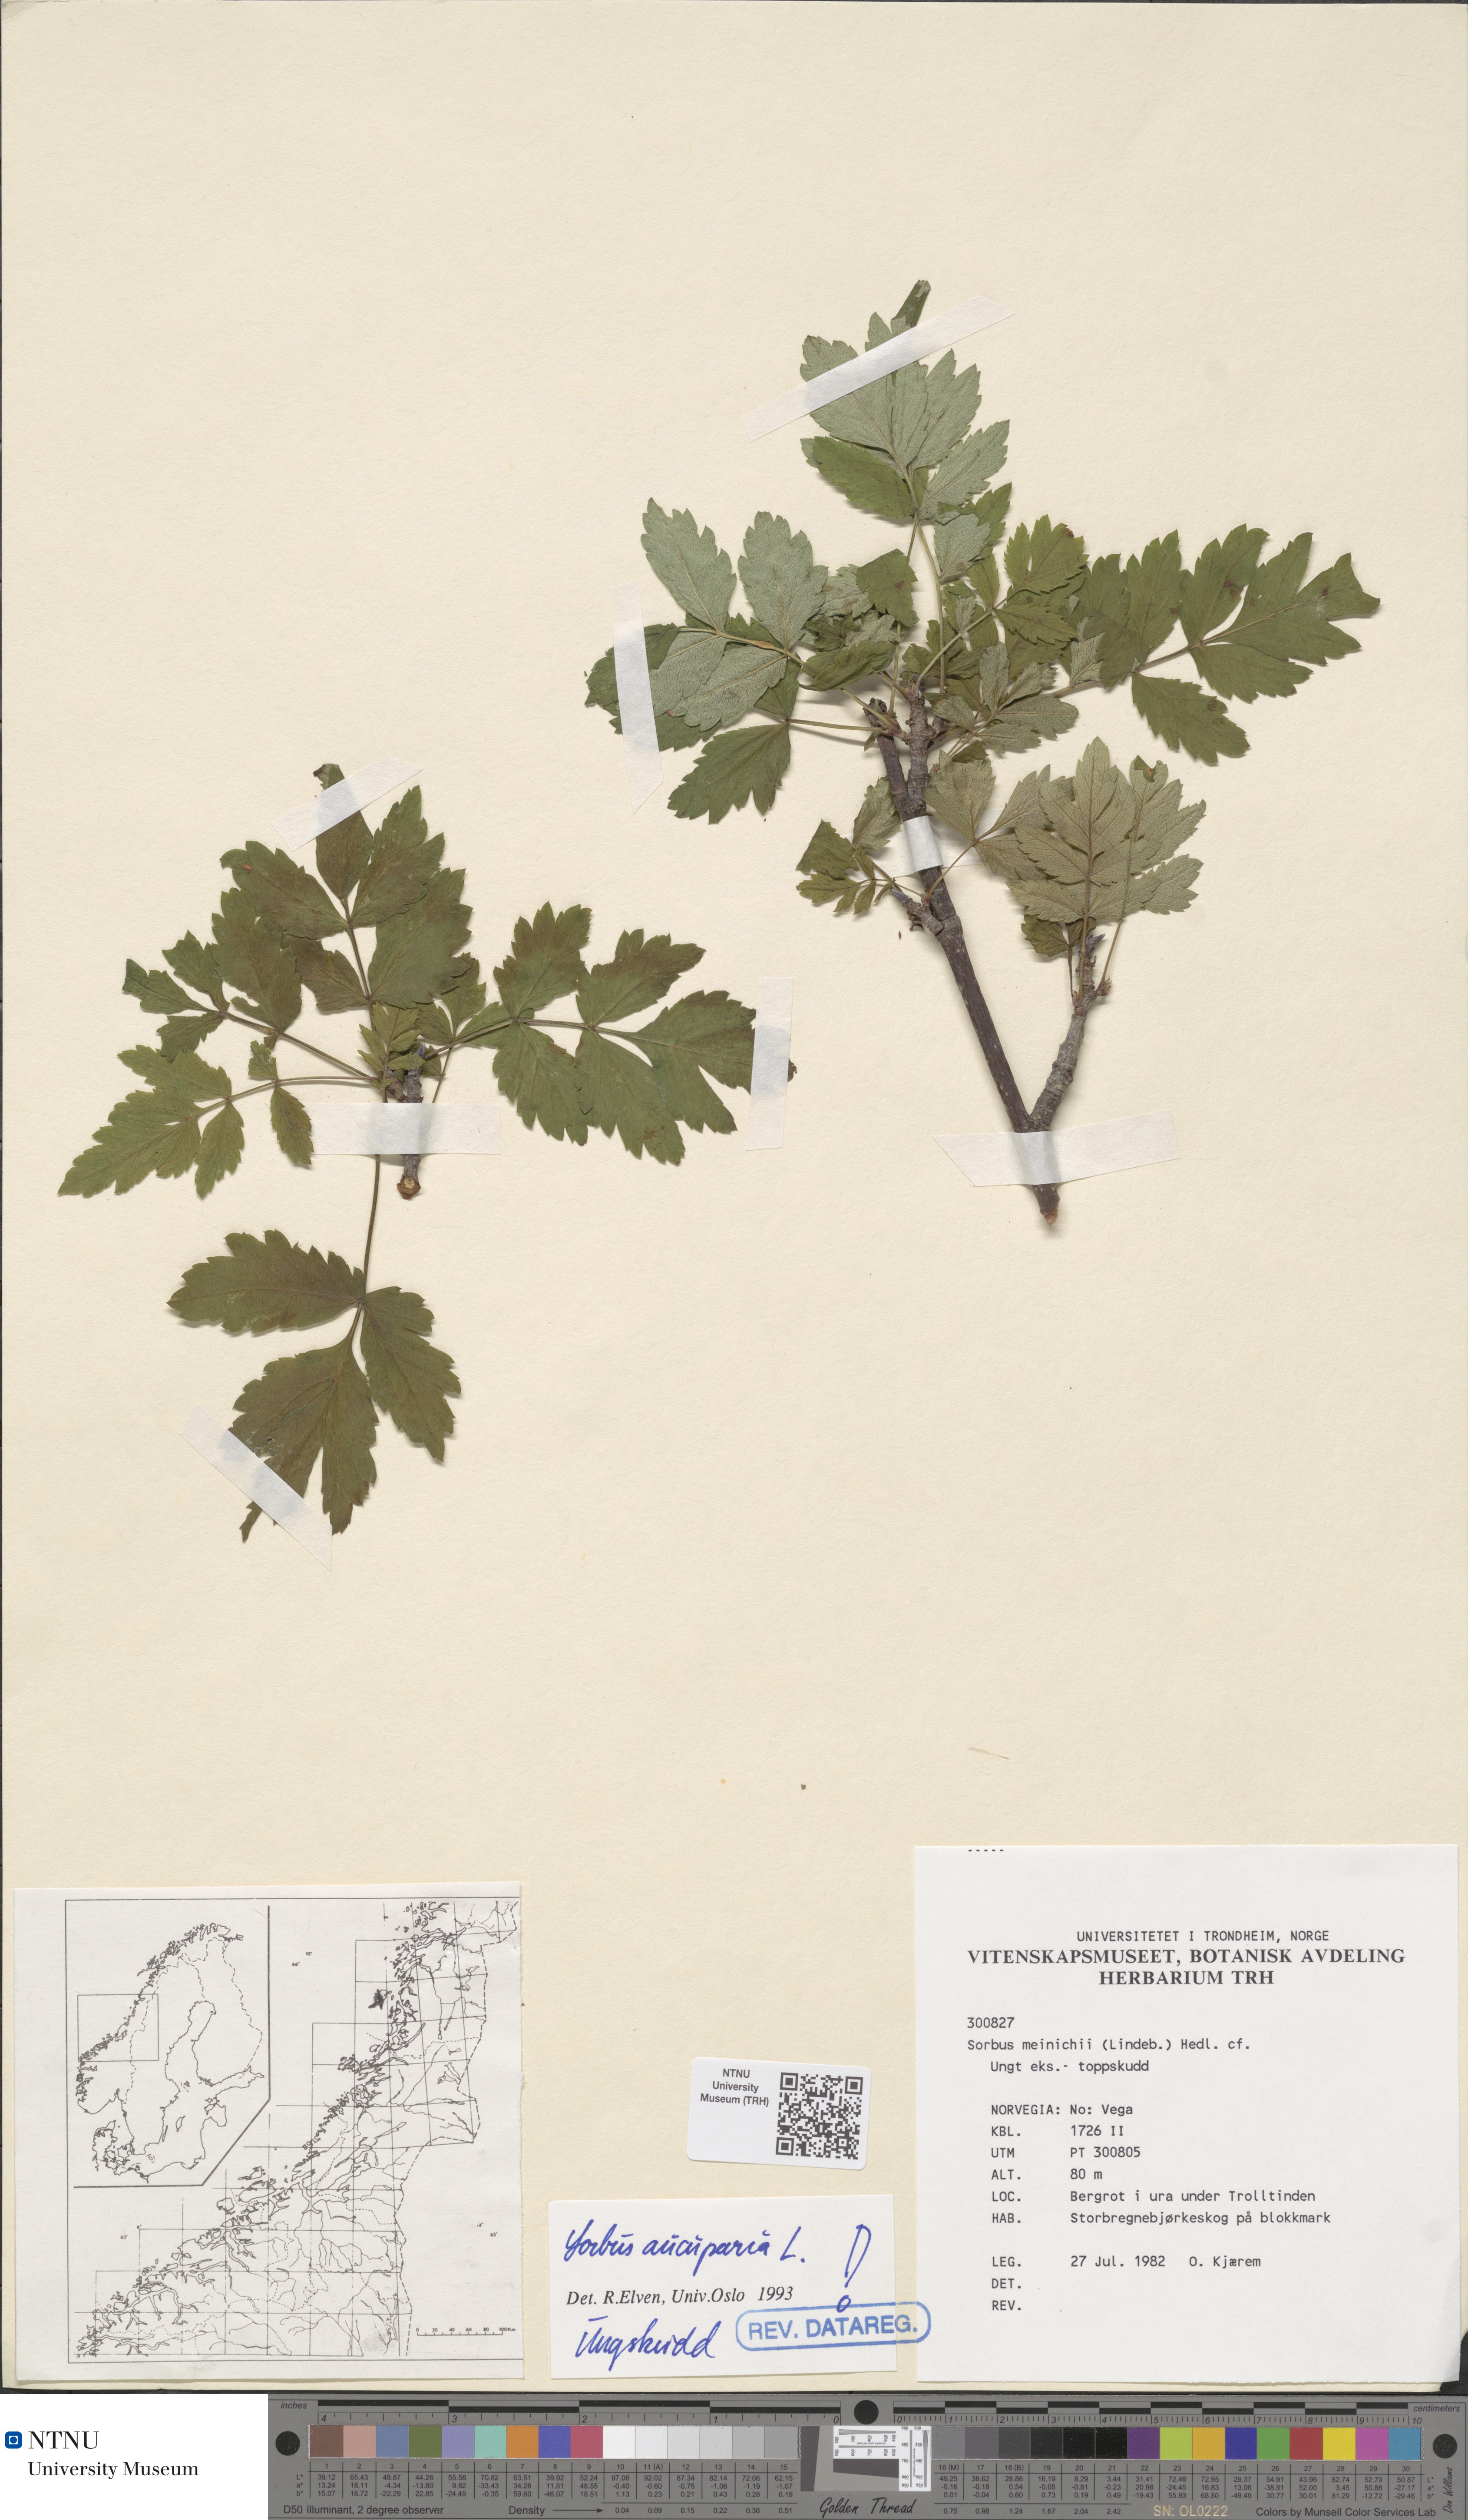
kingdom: Plantae
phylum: Tracheophyta
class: Magnoliopsida
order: Rosales
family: Rosaceae
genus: Sorbus
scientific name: Sorbus aucuparia
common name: Rowan
